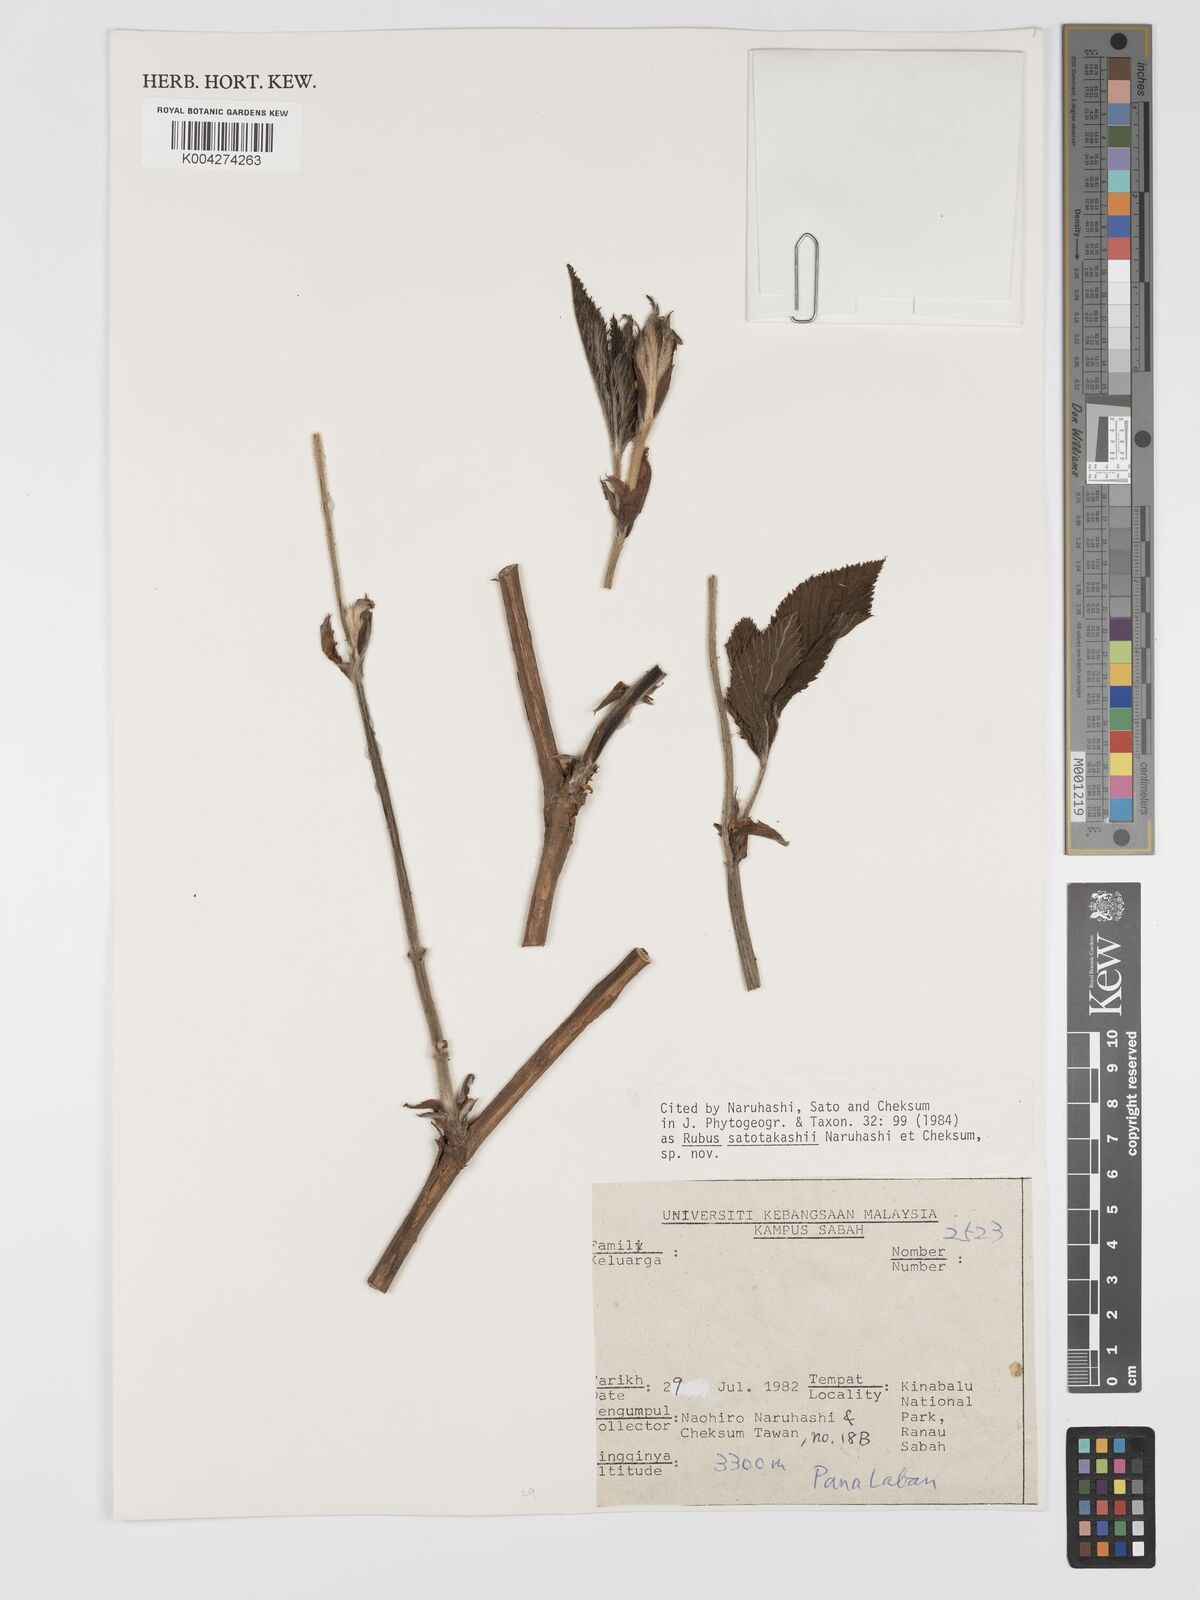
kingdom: Plantae
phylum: Tracheophyta
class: Magnoliopsida
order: Rosales
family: Rosaceae
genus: Rubus
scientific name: Rubus satotakashii
